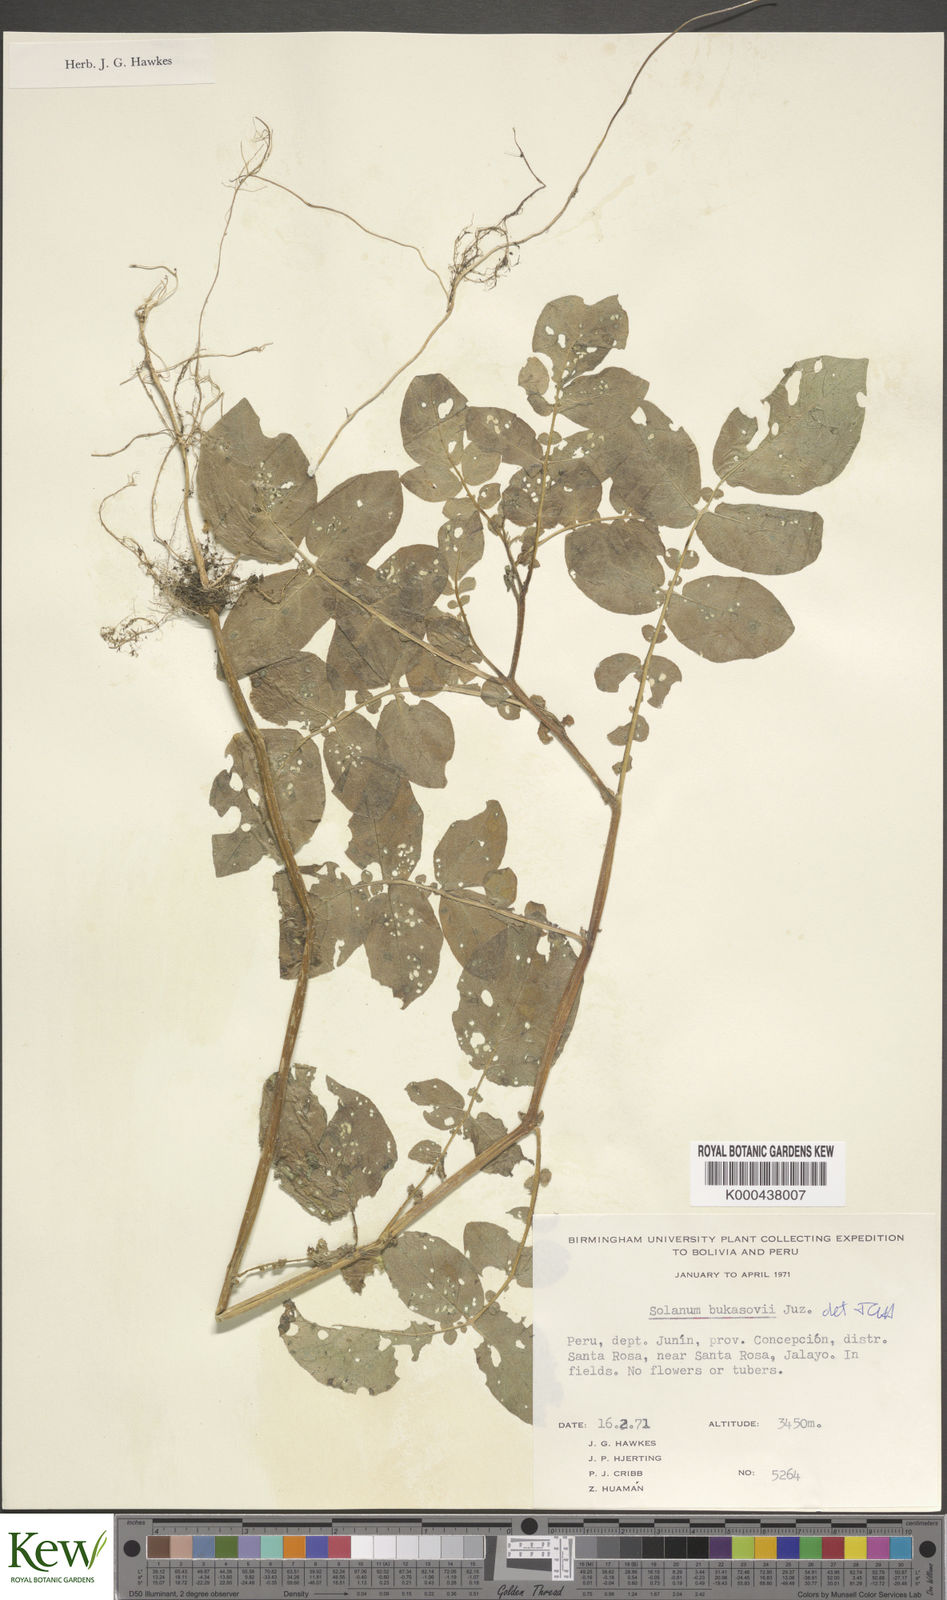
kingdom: Plantae
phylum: Tracheophyta
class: Magnoliopsida
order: Solanales
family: Solanaceae
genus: Solanum
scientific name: Solanum candolleanum
